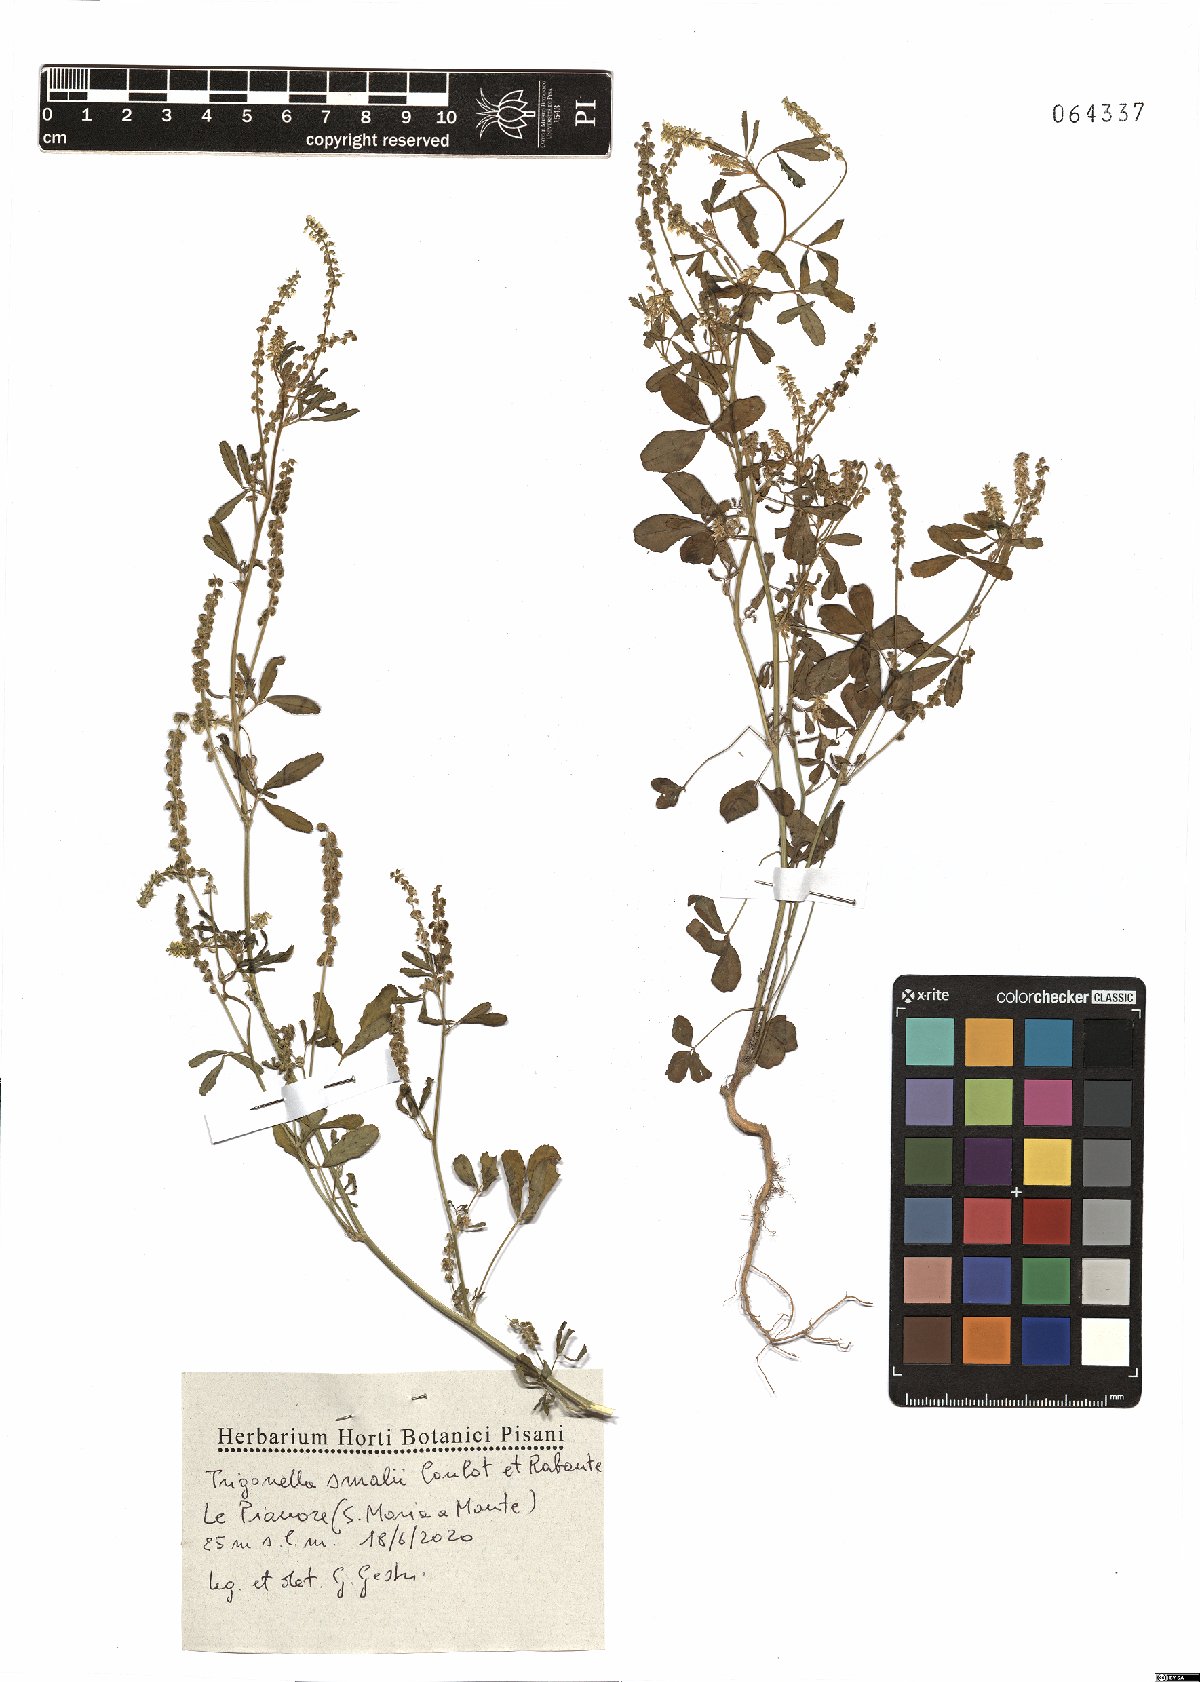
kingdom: Plantae
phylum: Tracheophyta
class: Magnoliopsida
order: Fabales
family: Fabaceae
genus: Melilotus
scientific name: Melilotus indicus
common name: Small melilot
